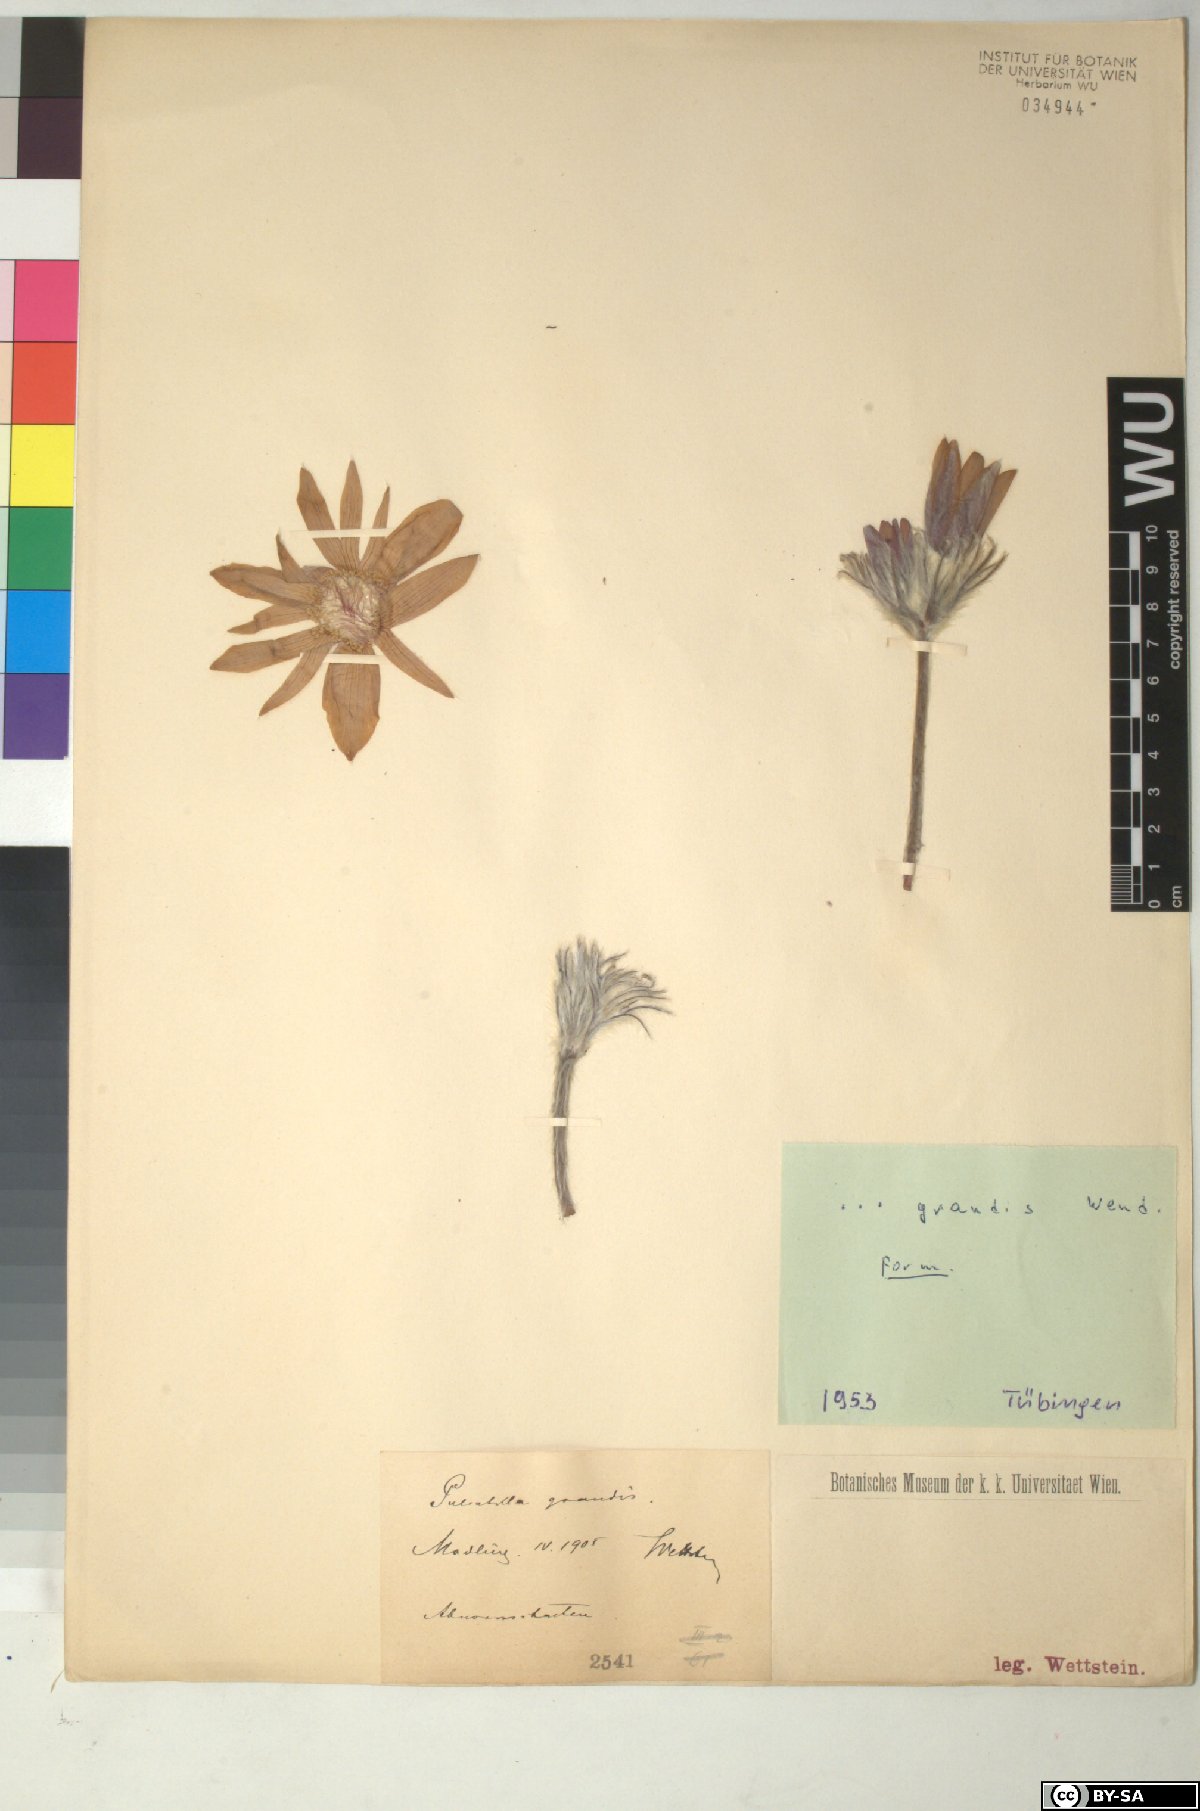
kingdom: Plantae
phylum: Tracheophyta
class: Magnoliopsida
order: Ranunculales
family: Ranunculaceae
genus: Pulsatilla
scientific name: Pulsatilla grandis
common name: Greater pasque flower
